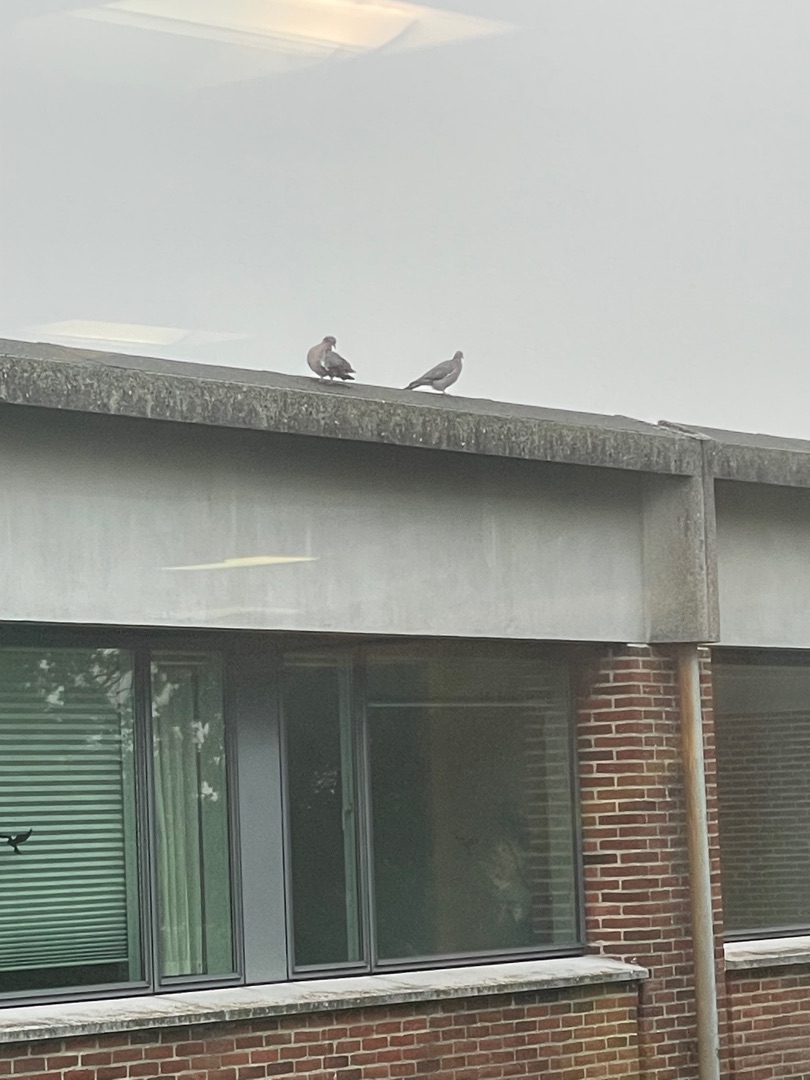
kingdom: Animalia
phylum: Chordata
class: Aves
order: Columbiformes
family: Columbidae
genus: Columba
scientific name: Columba palumbus
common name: Ringdue
